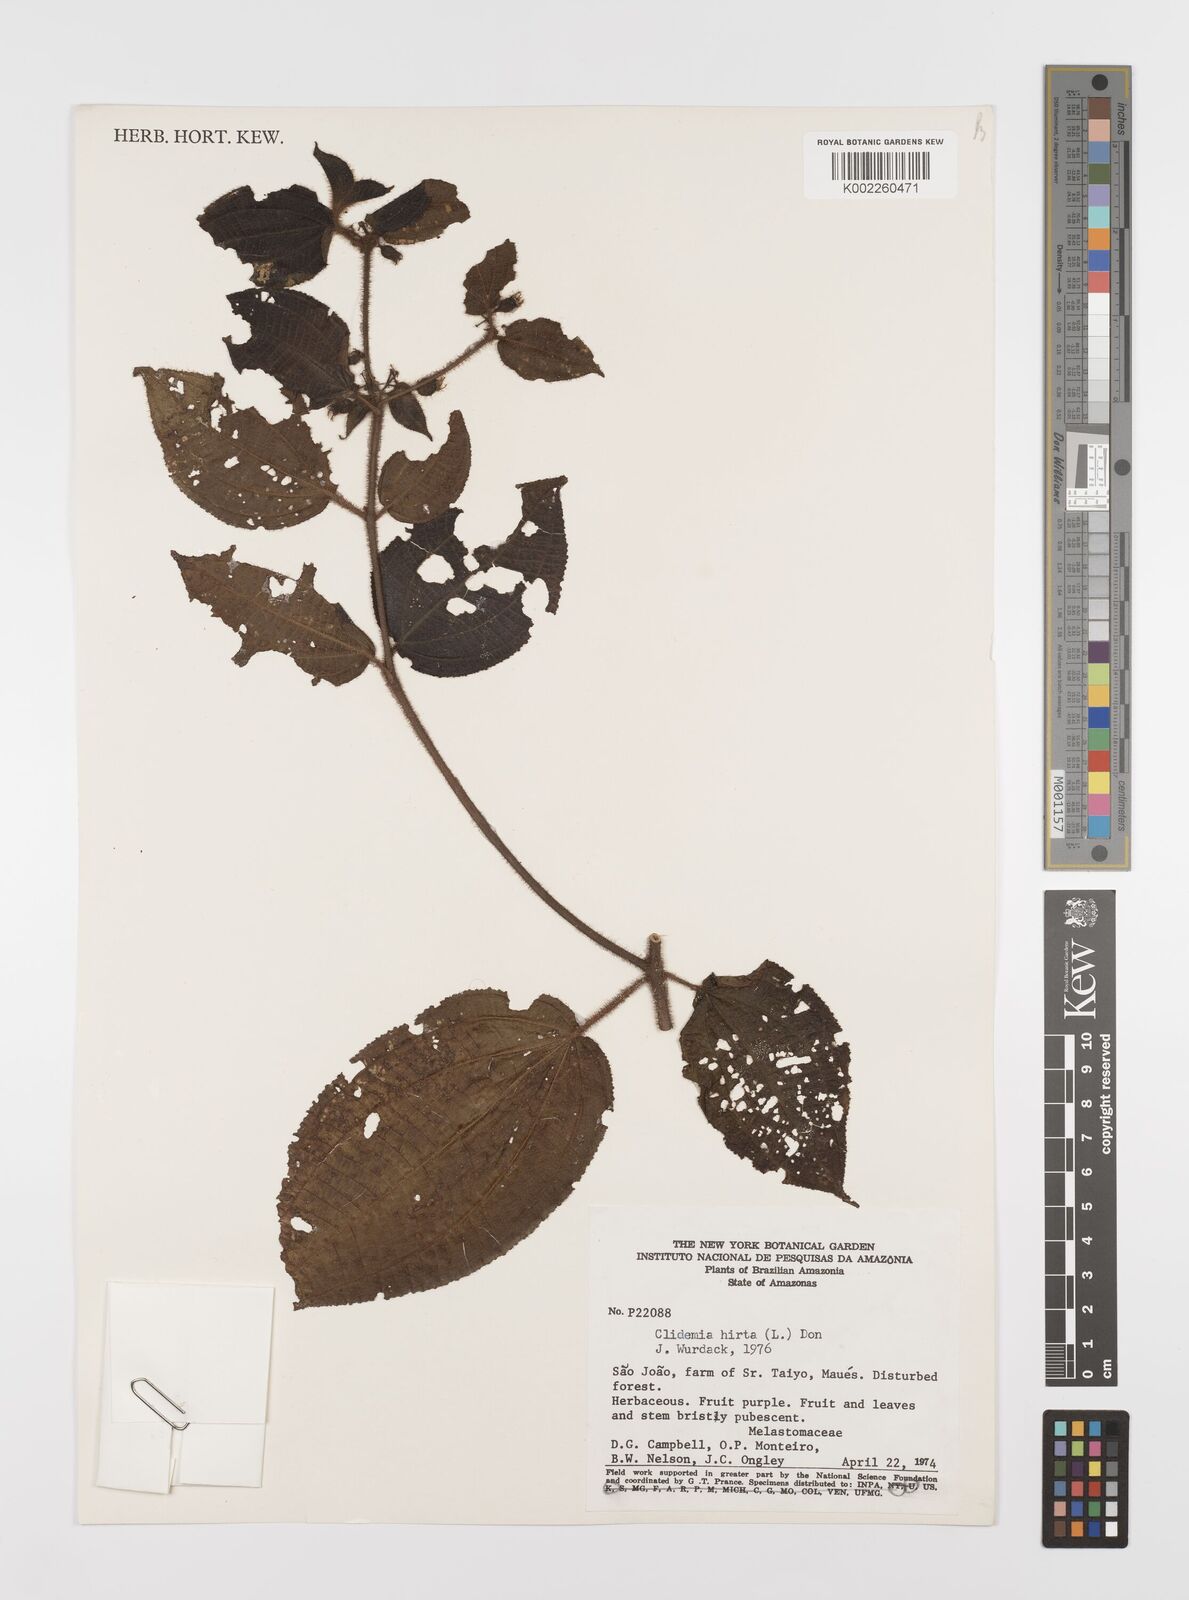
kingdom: Plantae
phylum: Tracheophyta
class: Magnoliopsida
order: Myrtales
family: Melastomataceae
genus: Miconia
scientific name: Miconia crenata
